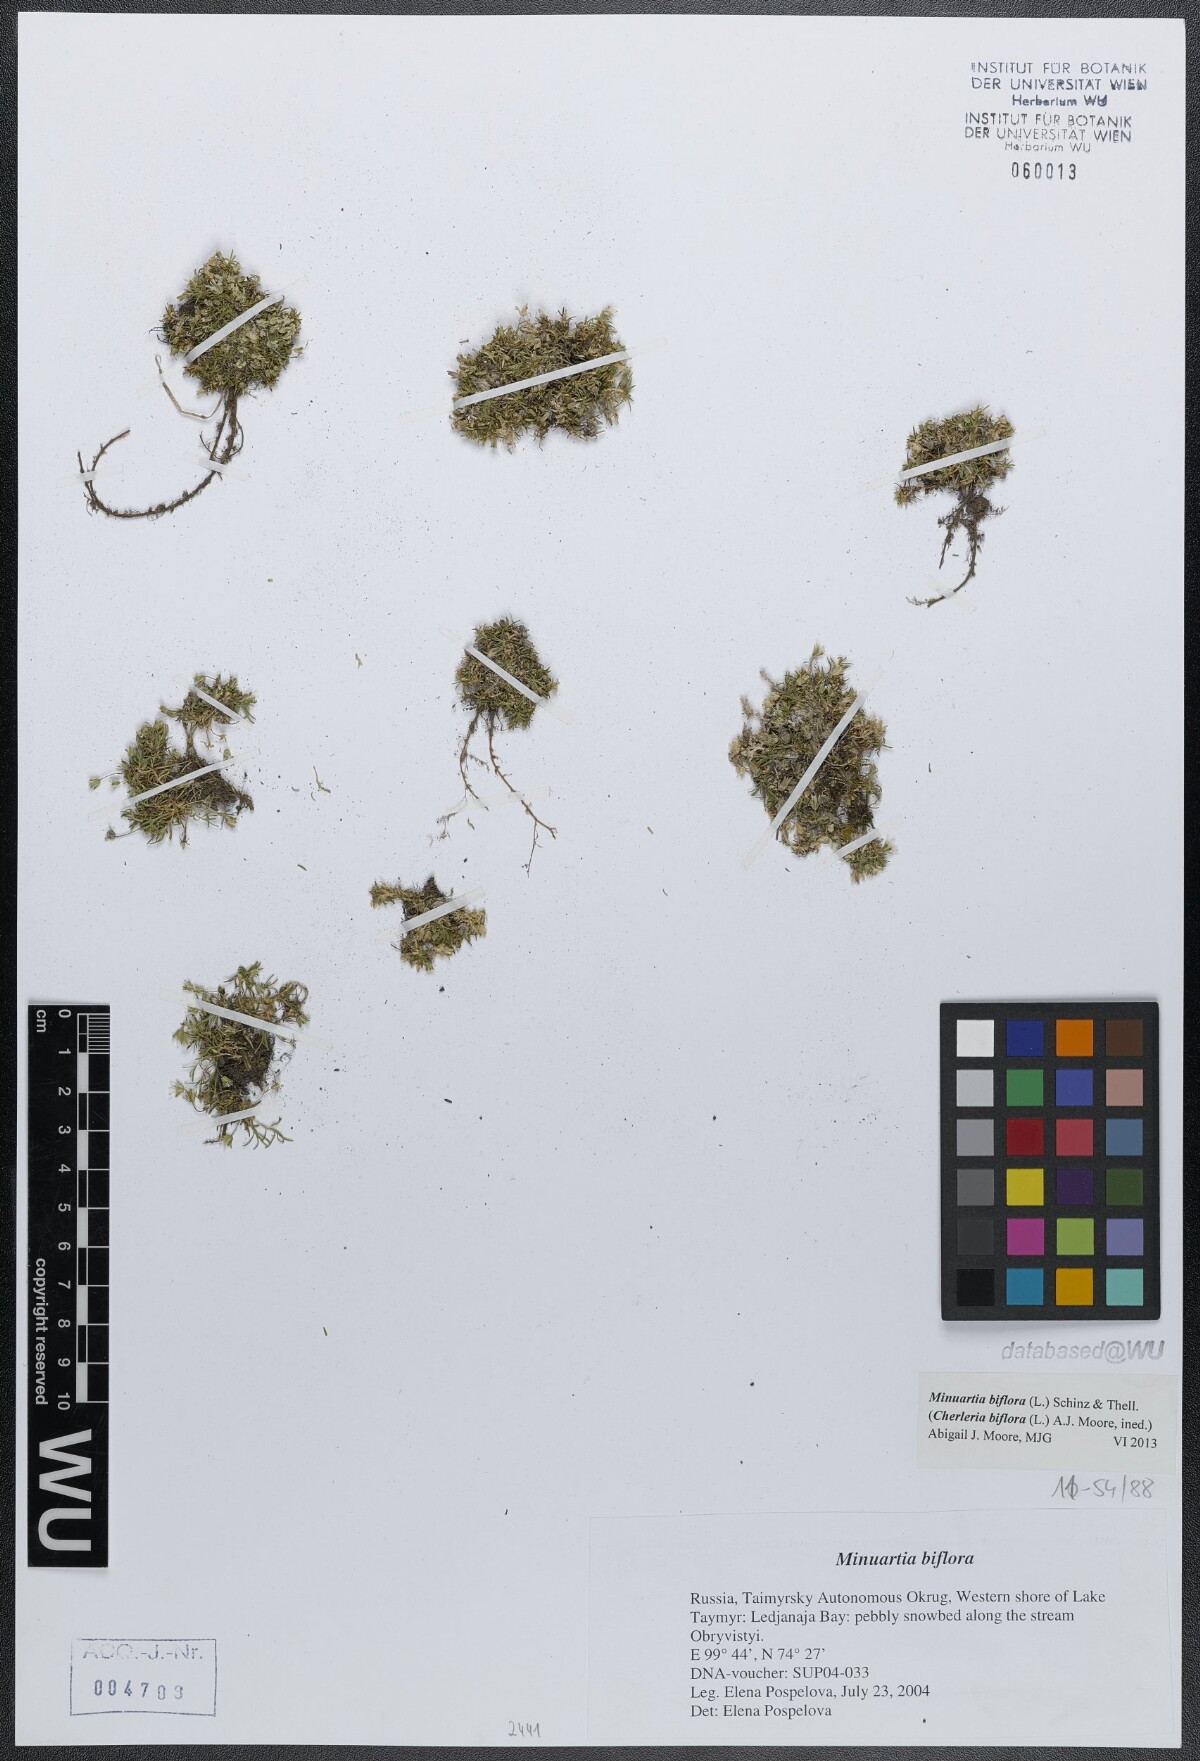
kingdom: Plantae
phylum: Tracheophyta
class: Magnoliopsida
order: Caryophyllales
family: Caryophyllaceae
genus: Cherleria
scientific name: Cherleria biflora
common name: Mountain sandwort
